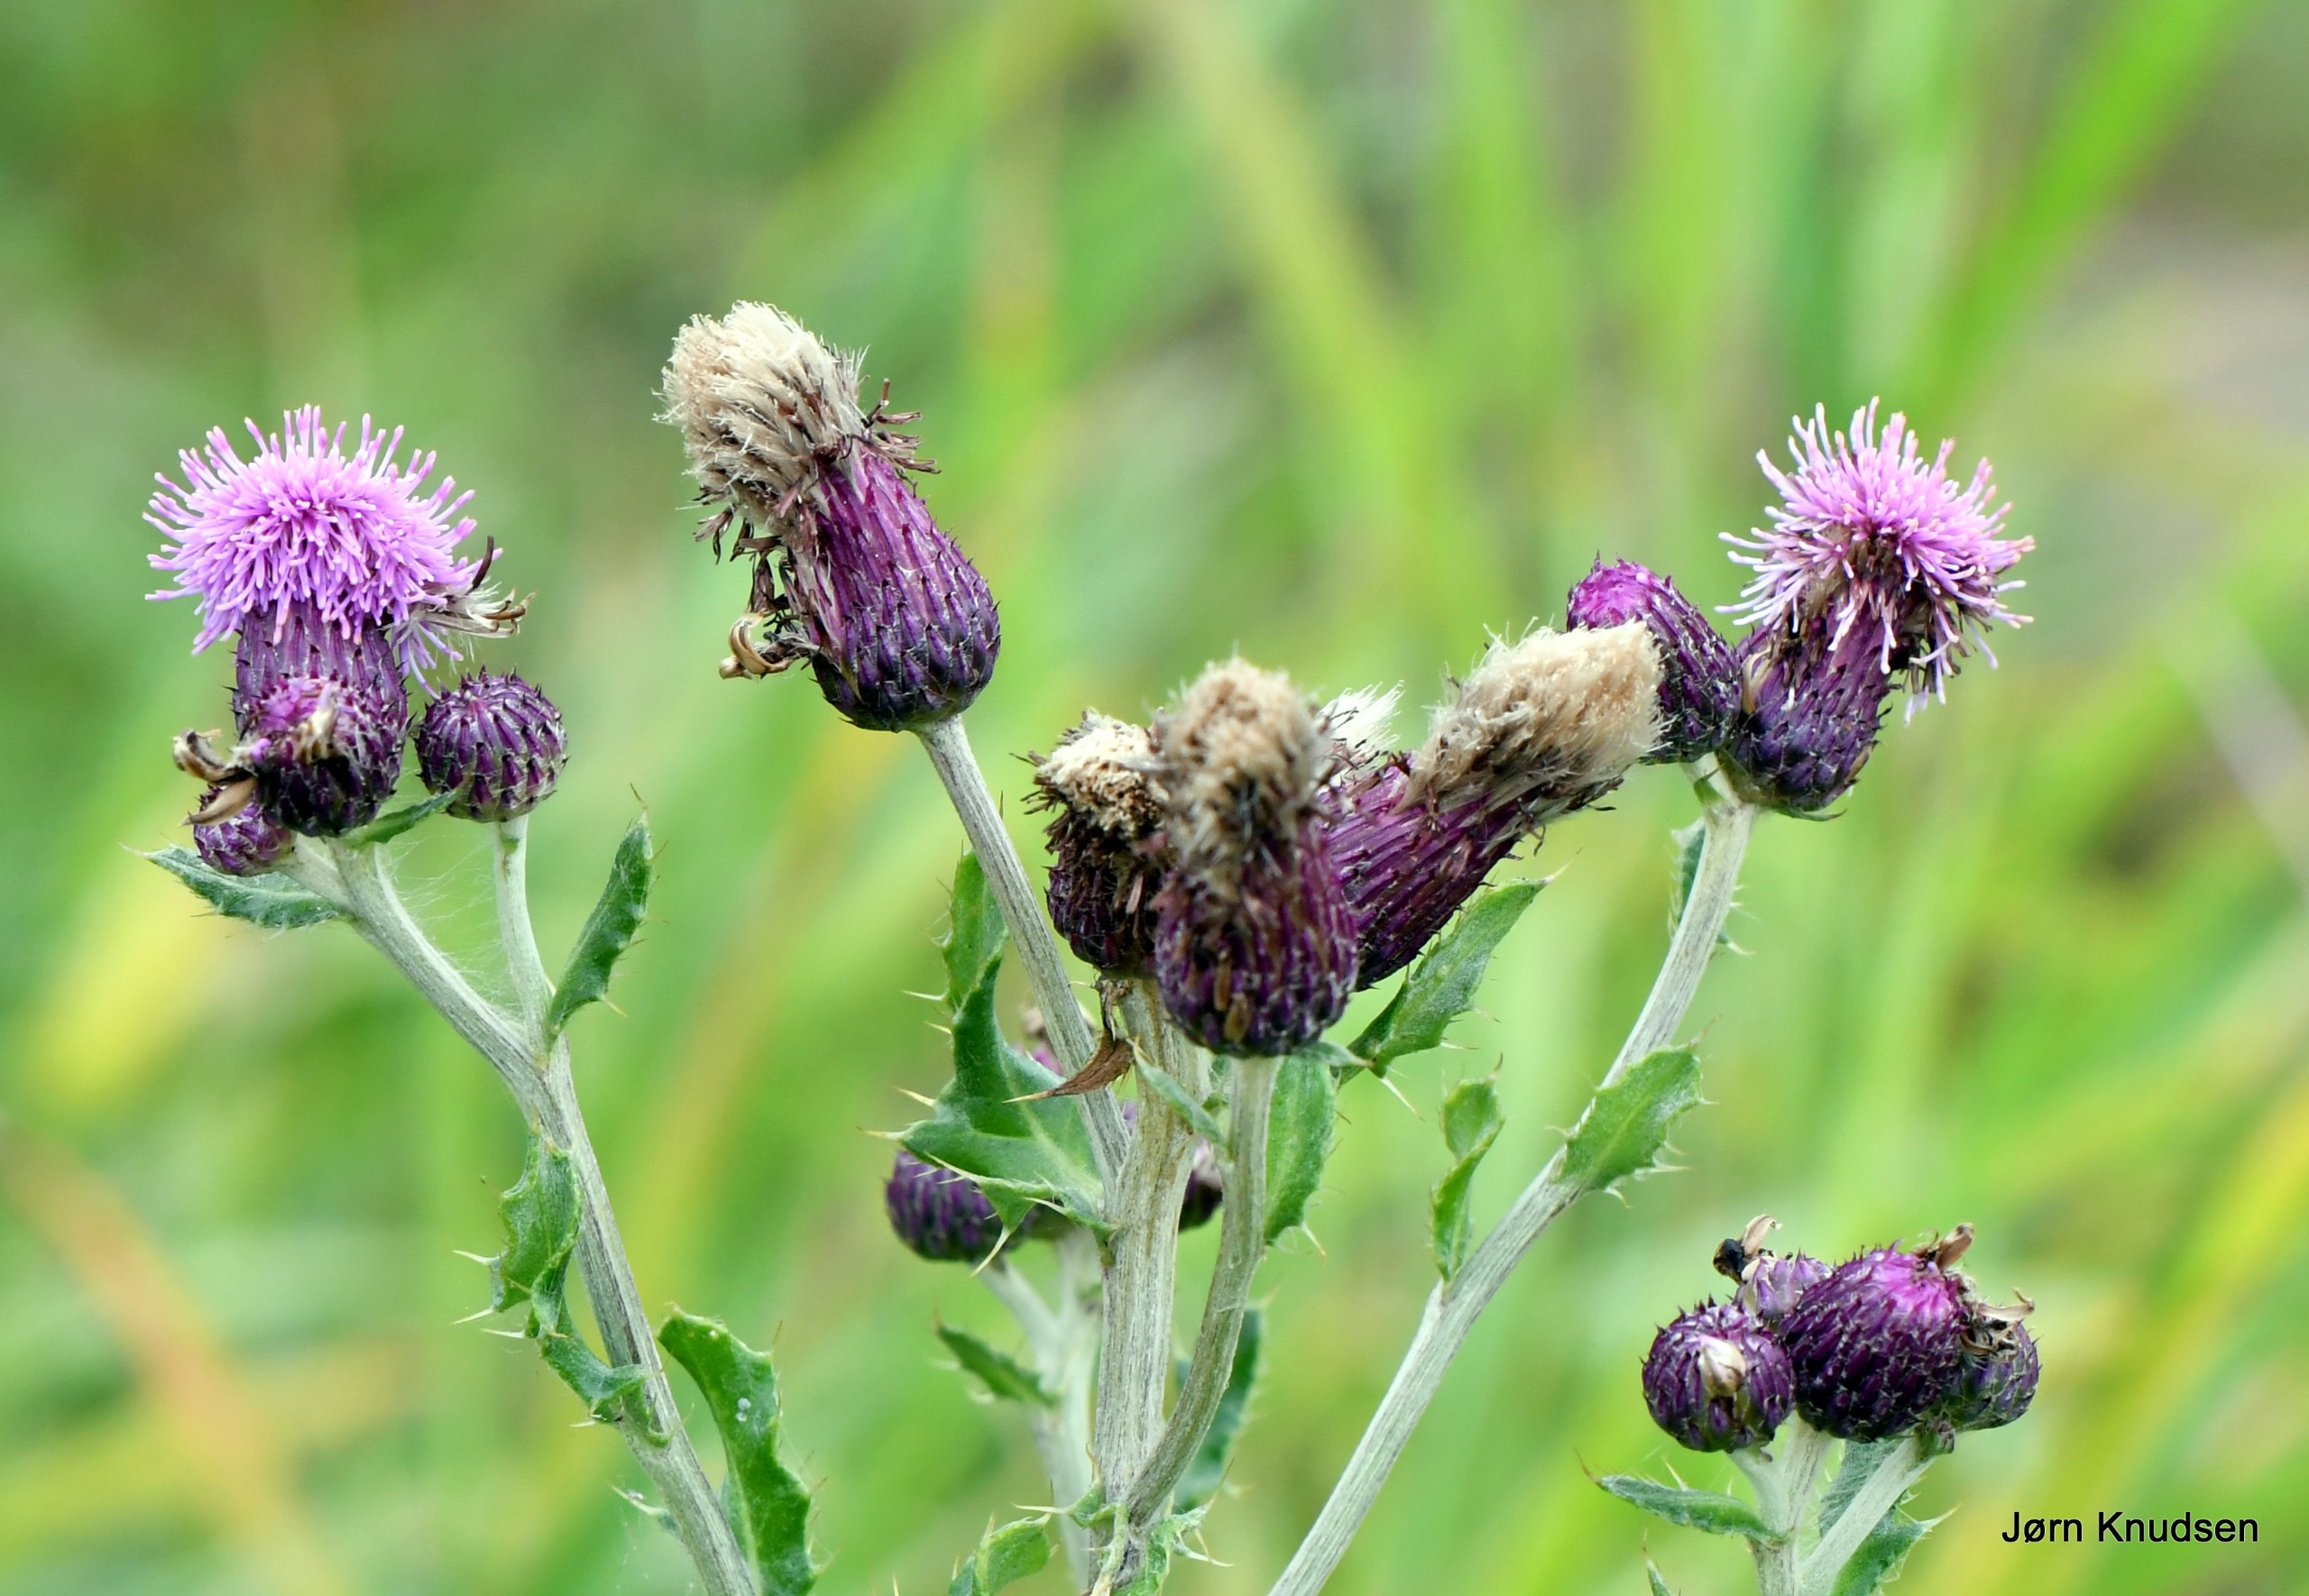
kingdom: Plantae
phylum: Tracheophyta
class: Magnoliopsida
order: Asterales
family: Asteraceae
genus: Cirsium
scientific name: Cirsium arvense
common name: Ager-tidsel
